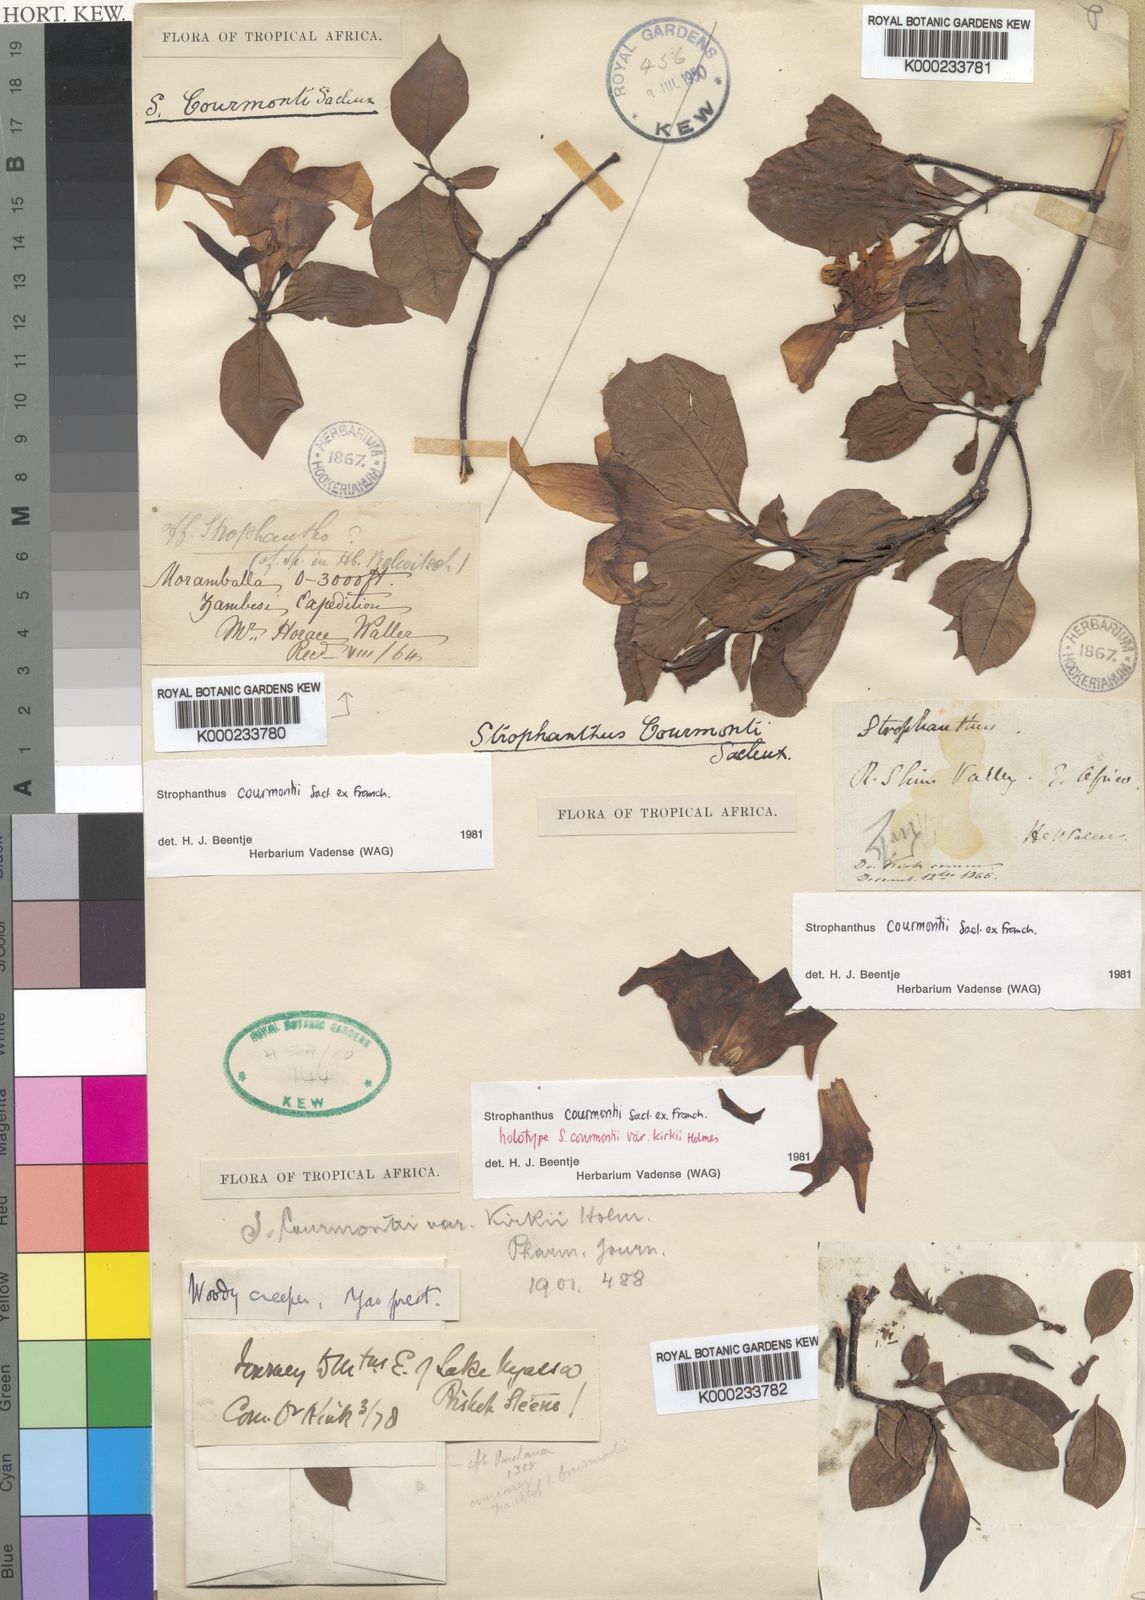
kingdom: Plantae
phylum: Tracheophyta
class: Magnoliopsida
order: Gentianales
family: Apocynaceae
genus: Strophanthus
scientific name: Strophanthus courmontii
